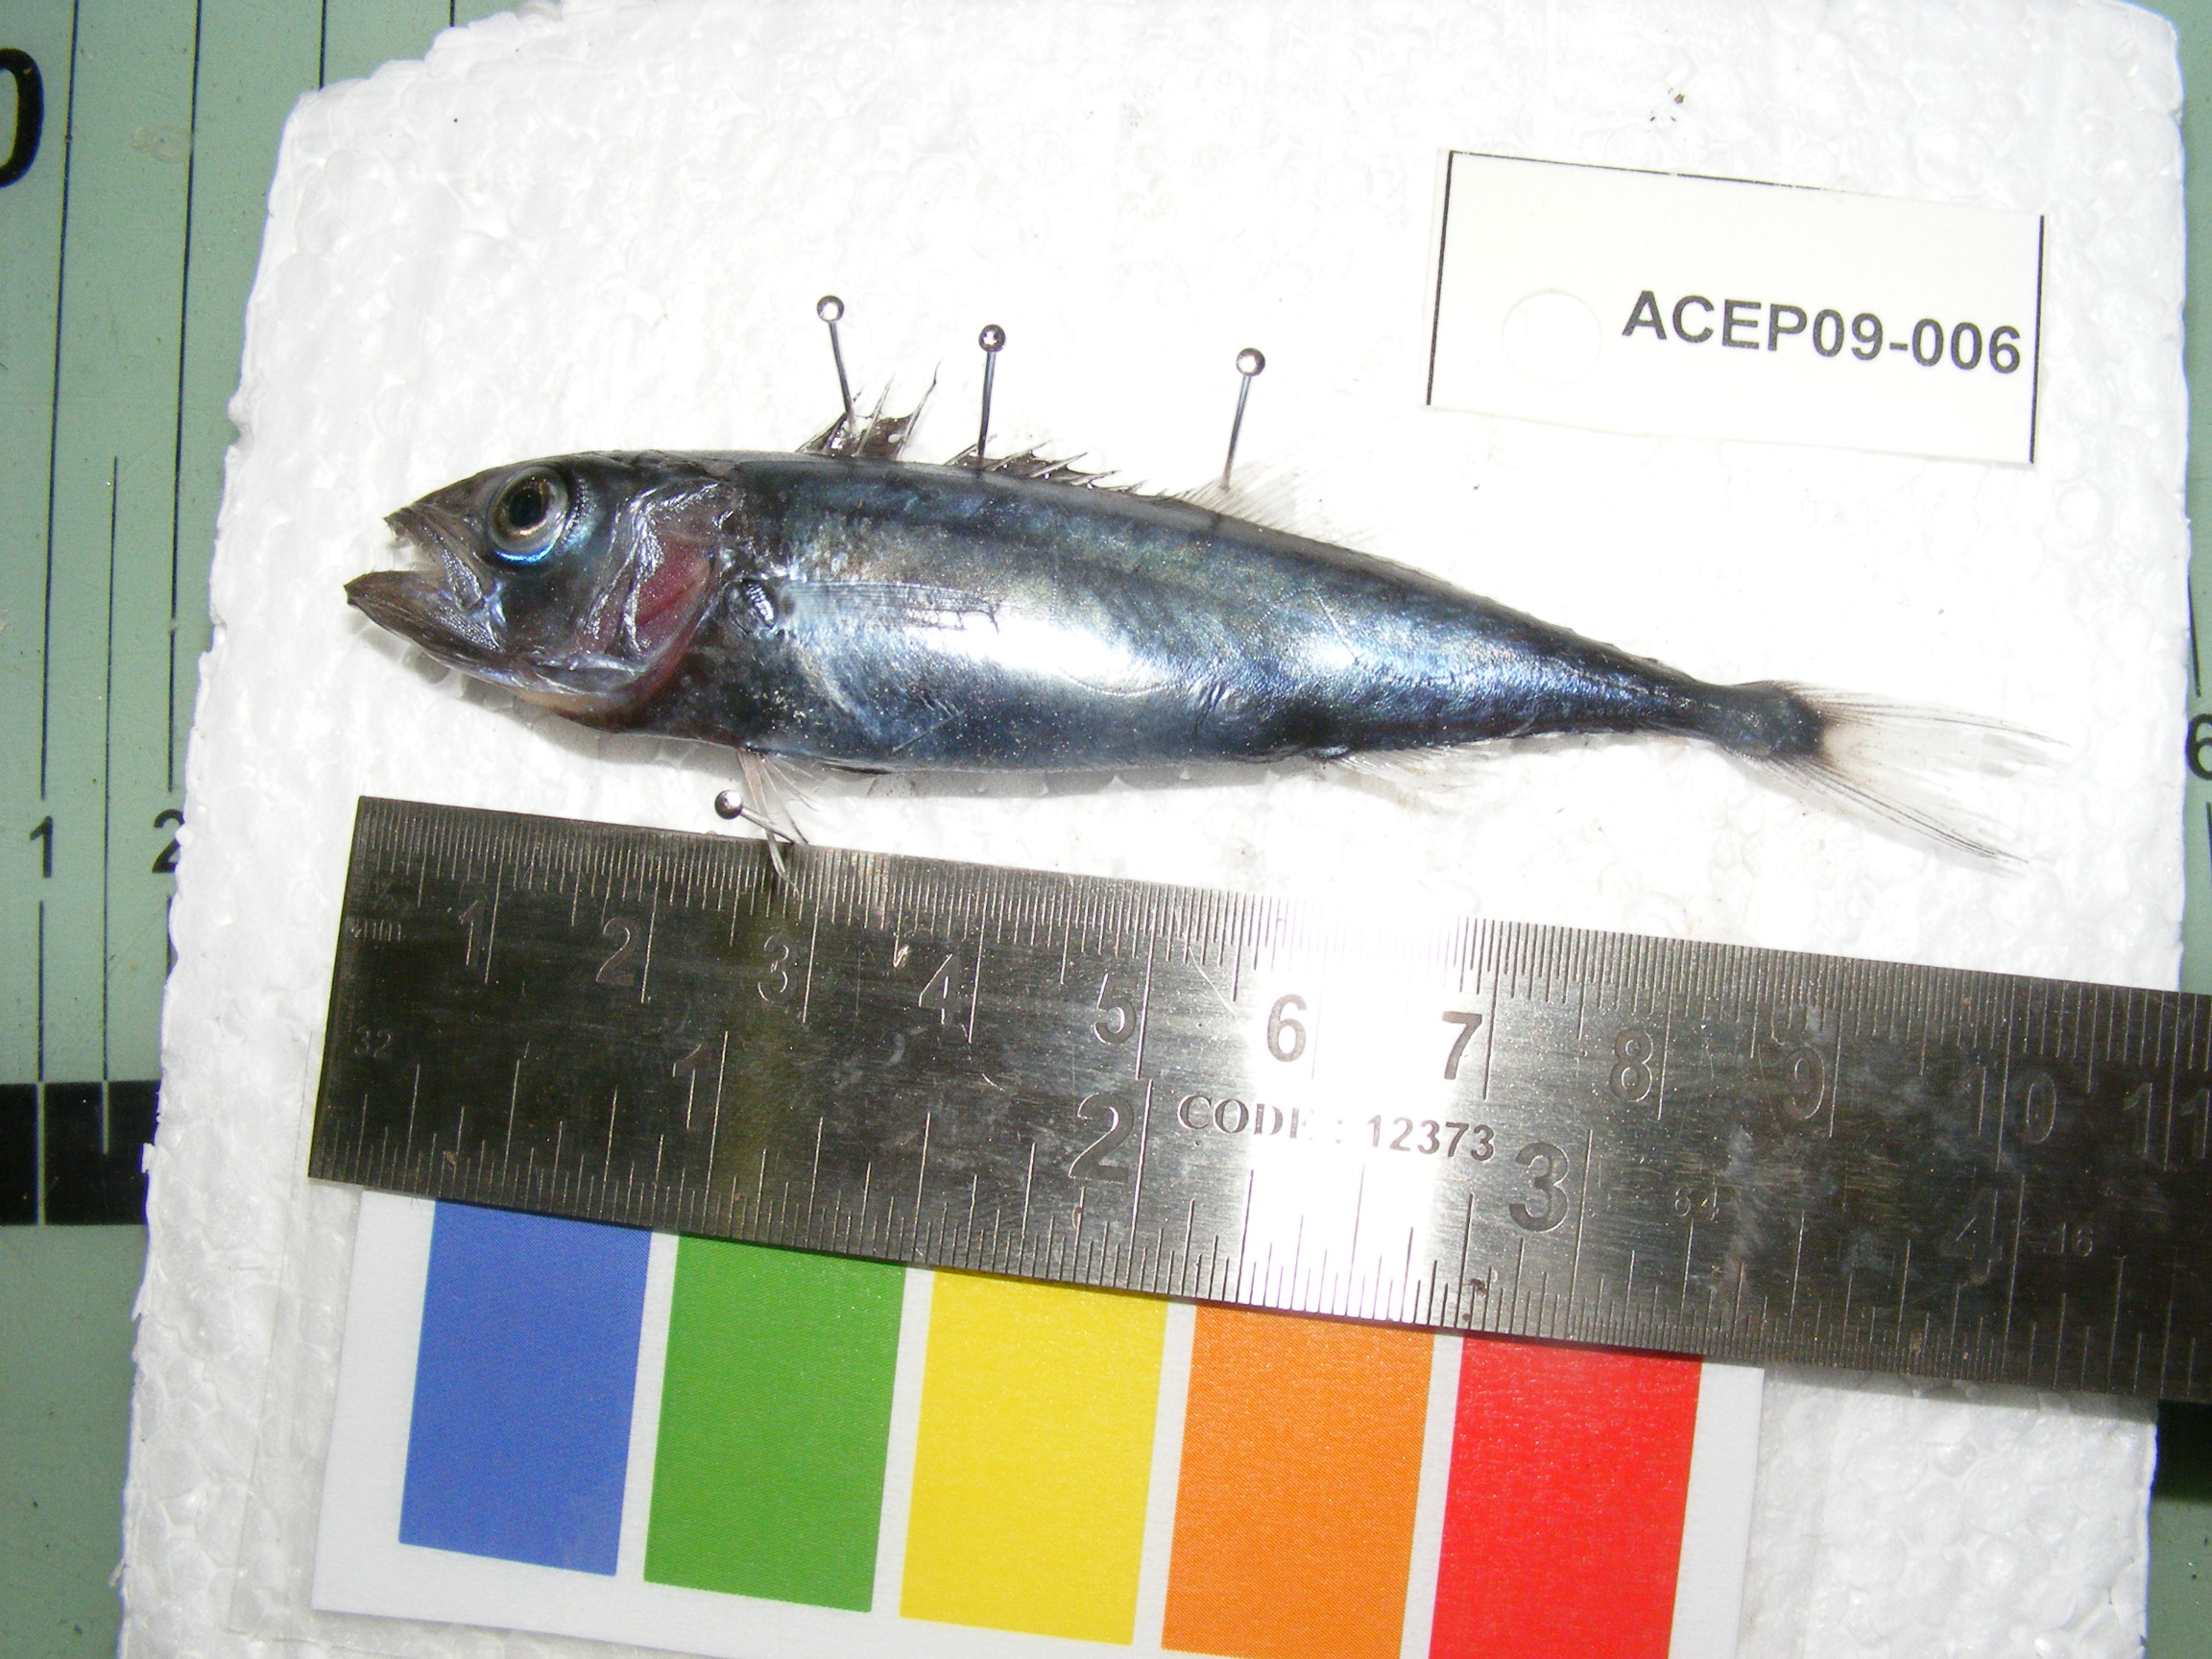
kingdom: Animalia
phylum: Chordata
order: Perciformes
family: Gempylidae
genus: Lepidocybium
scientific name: Lepidocybium flavobrunneum
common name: Escolar
